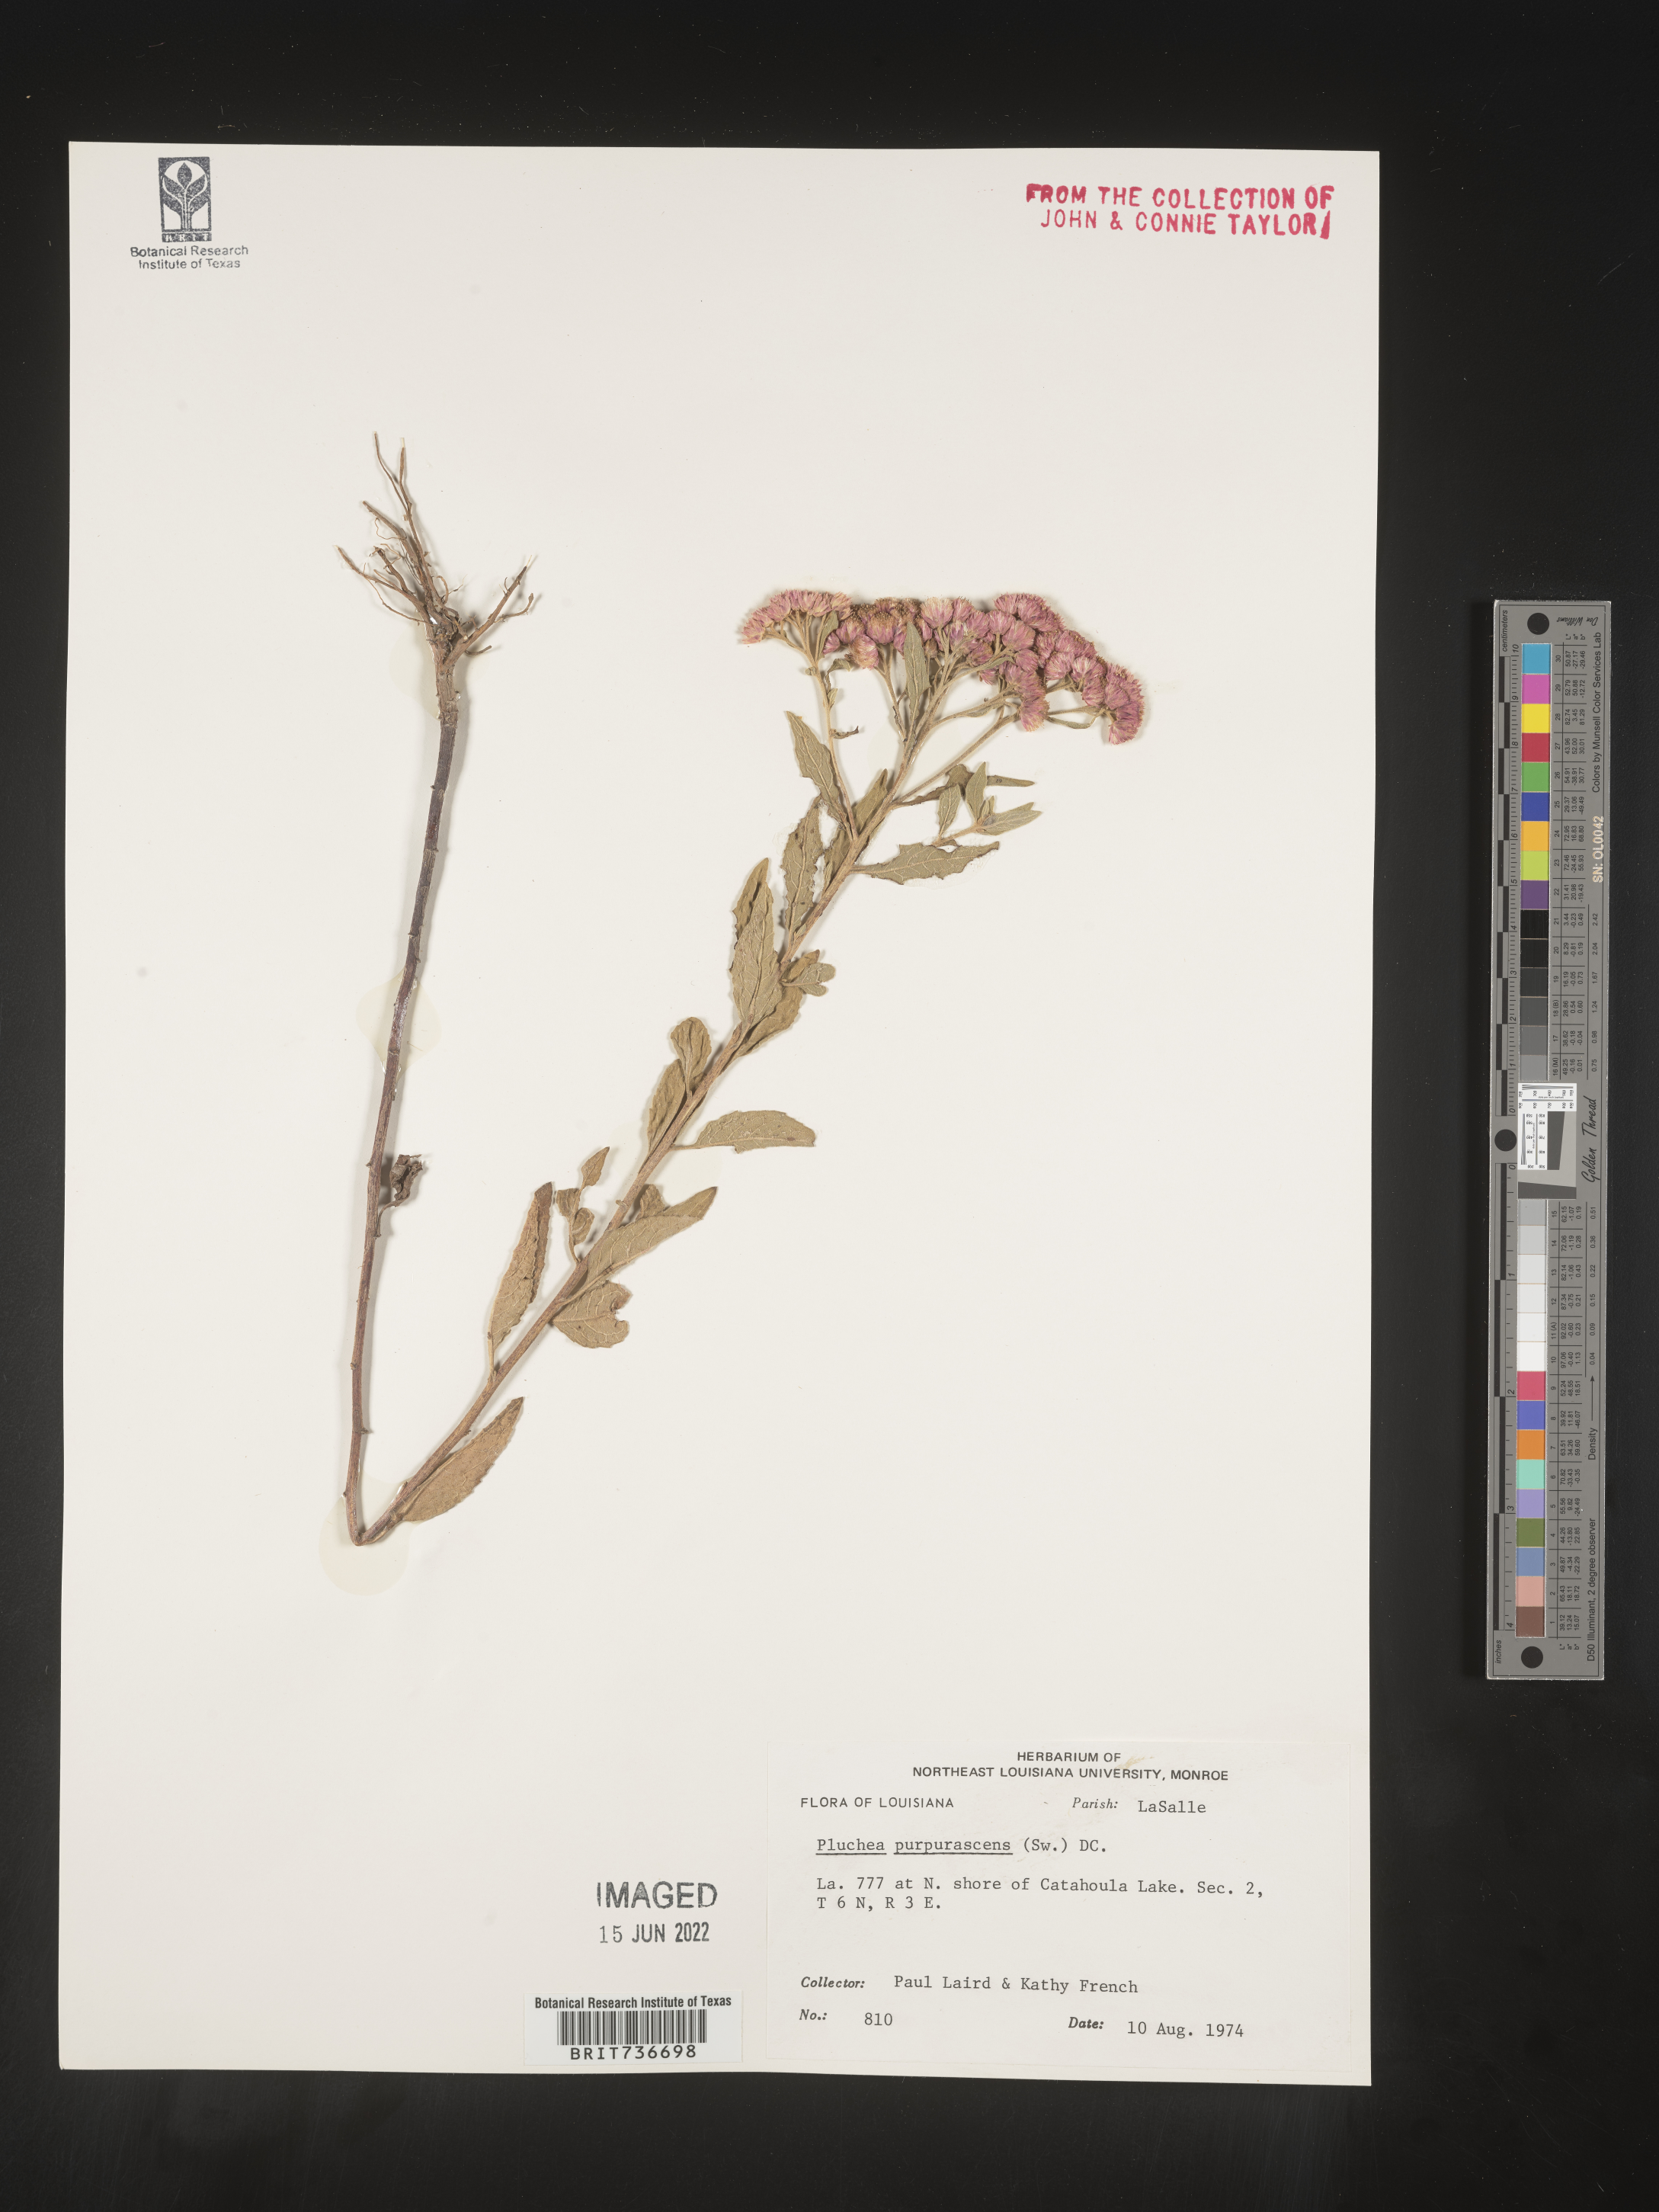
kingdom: Plantae
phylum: Tracheophyta
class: Magnoliopsida
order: Asterales
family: Asteraceae
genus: Pluchea
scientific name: Pluchea odorata
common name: Saltmarsh fleabane
